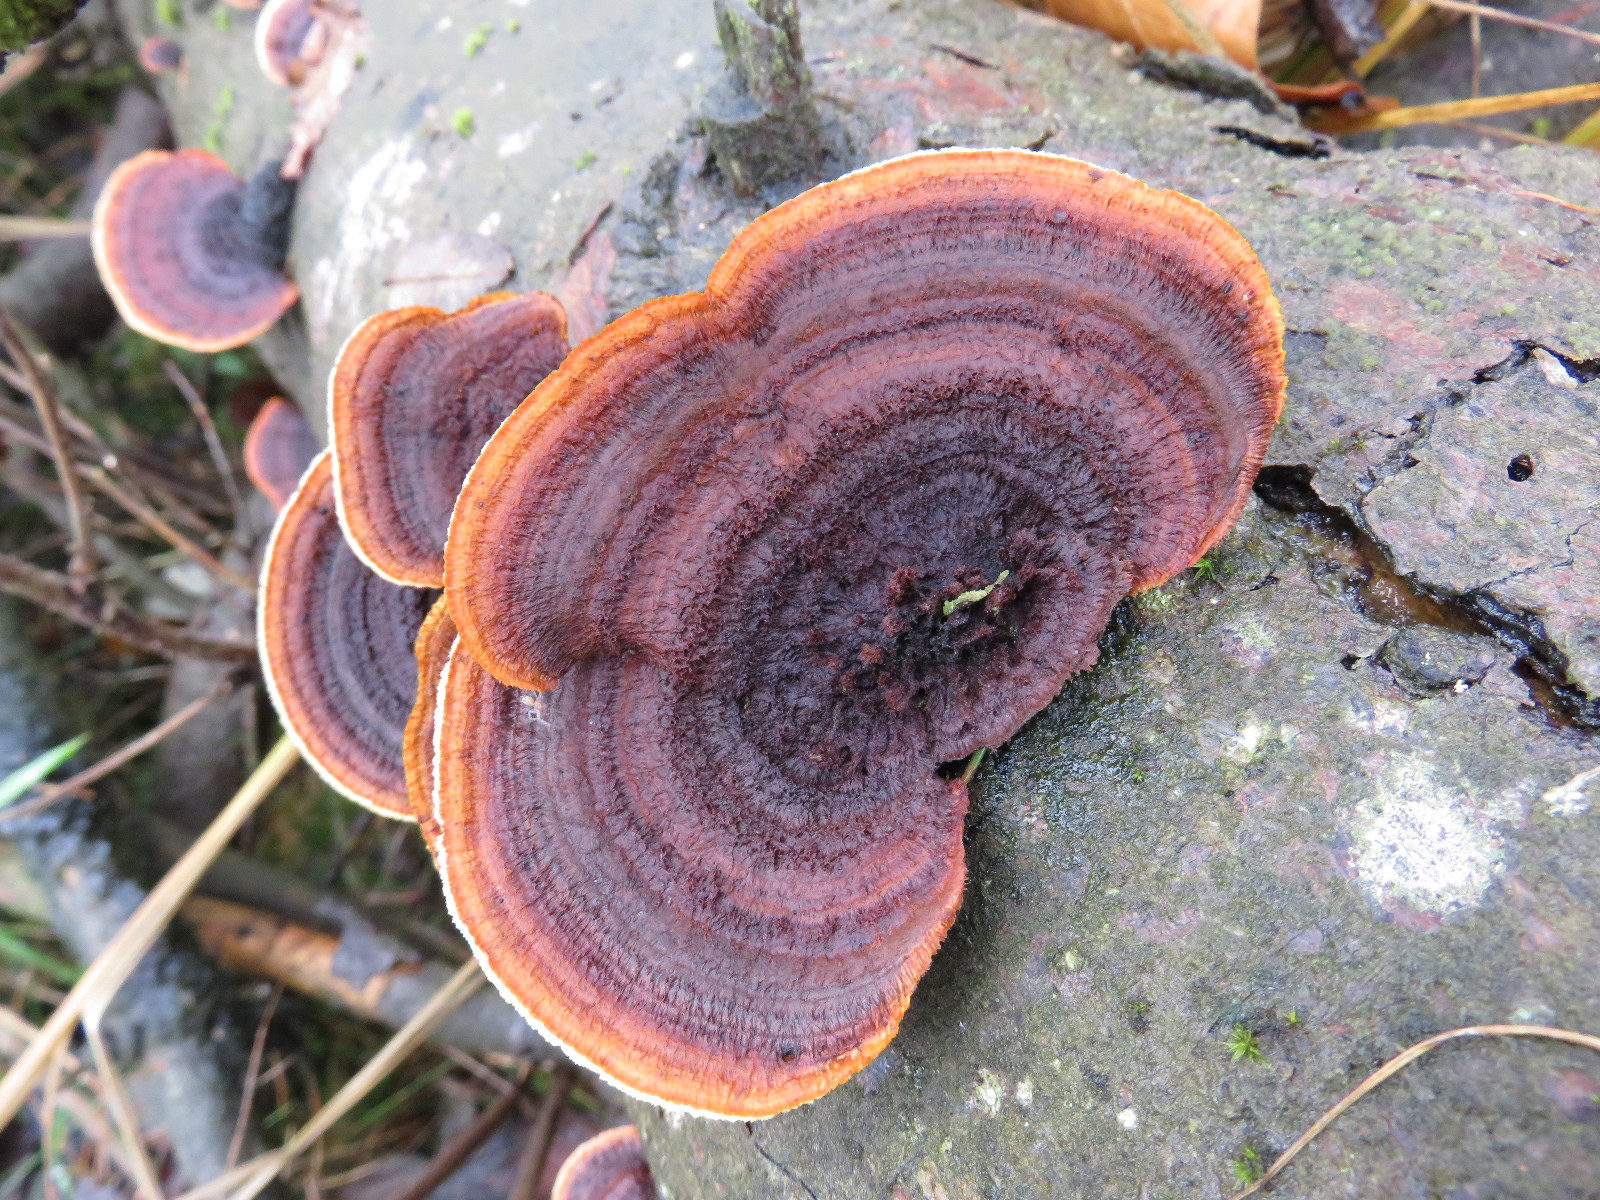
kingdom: Fungi
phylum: Basidiomycota
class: Agaricomycetes
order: Gloeophyllales
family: Gloeophyllaceae
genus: Gloeophyllum
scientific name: Gloeophyllum sepiarium
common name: fyrre-korkhat
